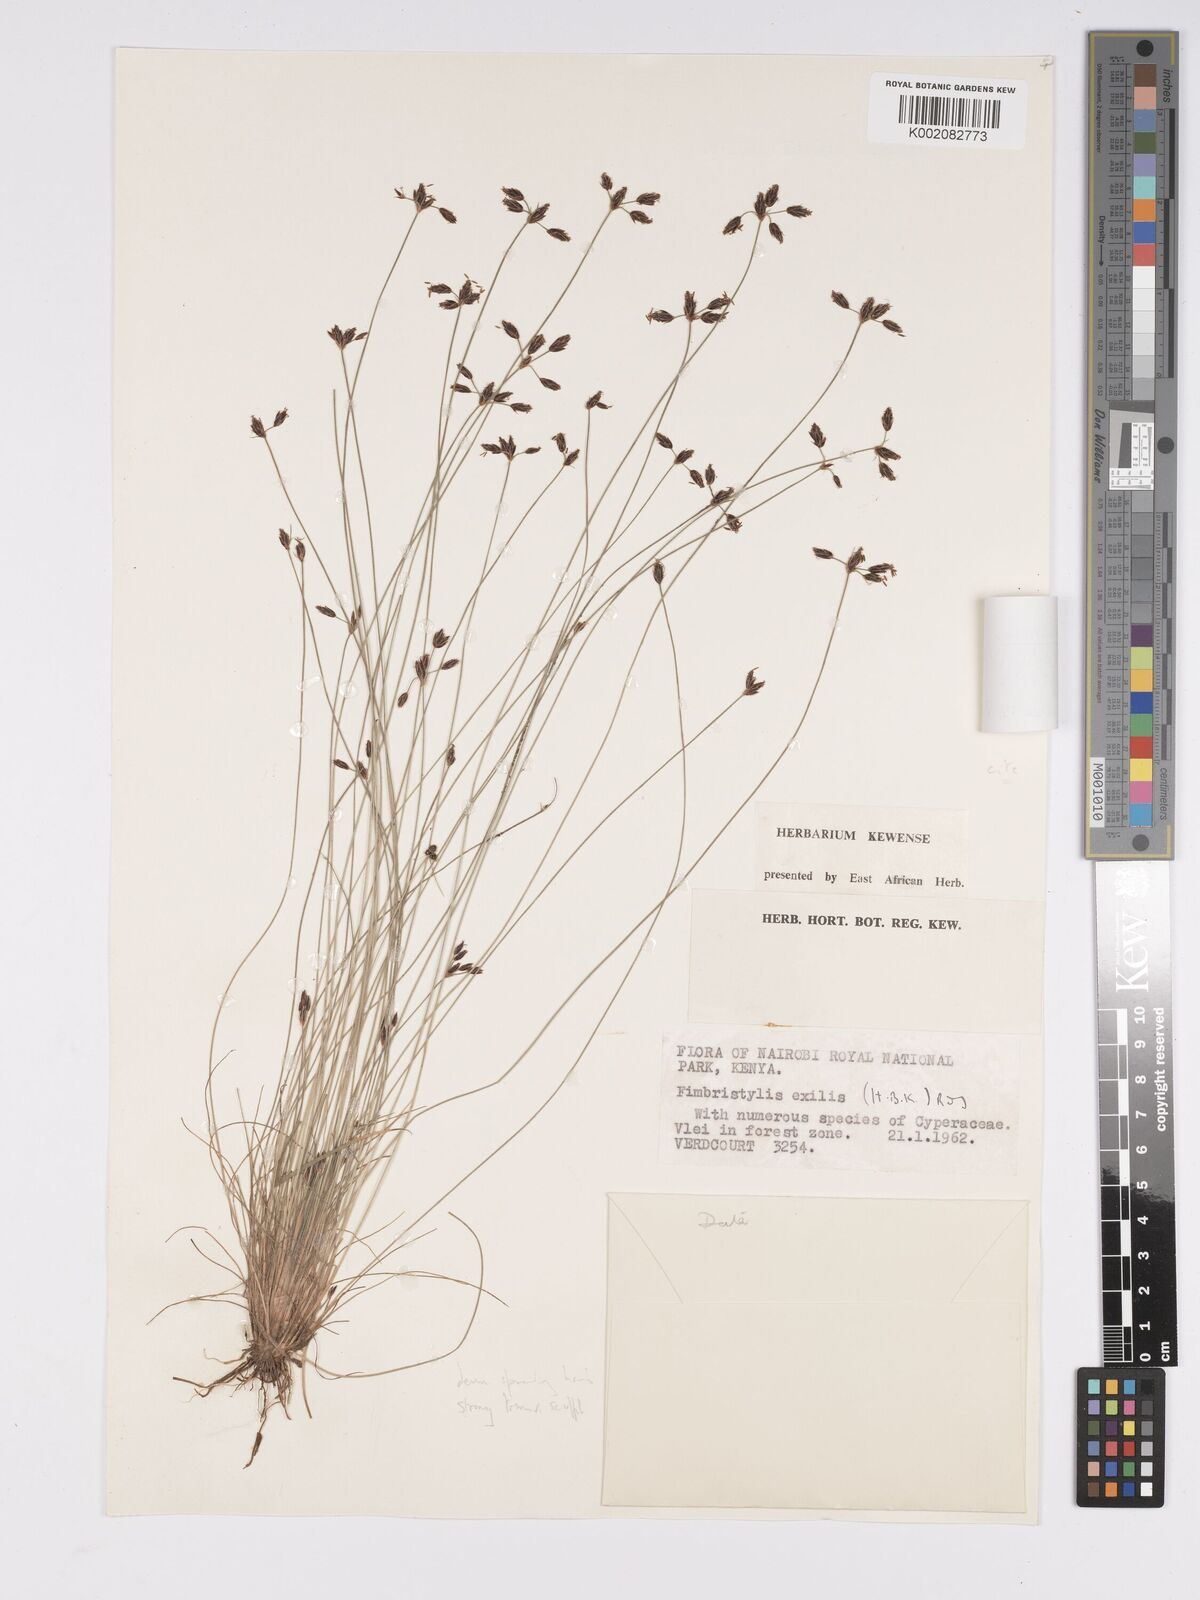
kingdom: Plantae
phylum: Tracheophyta
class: Liliopsida
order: Poales
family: Cyperaceae
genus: Bulbostylis
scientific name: Bulbostylis hispidula
